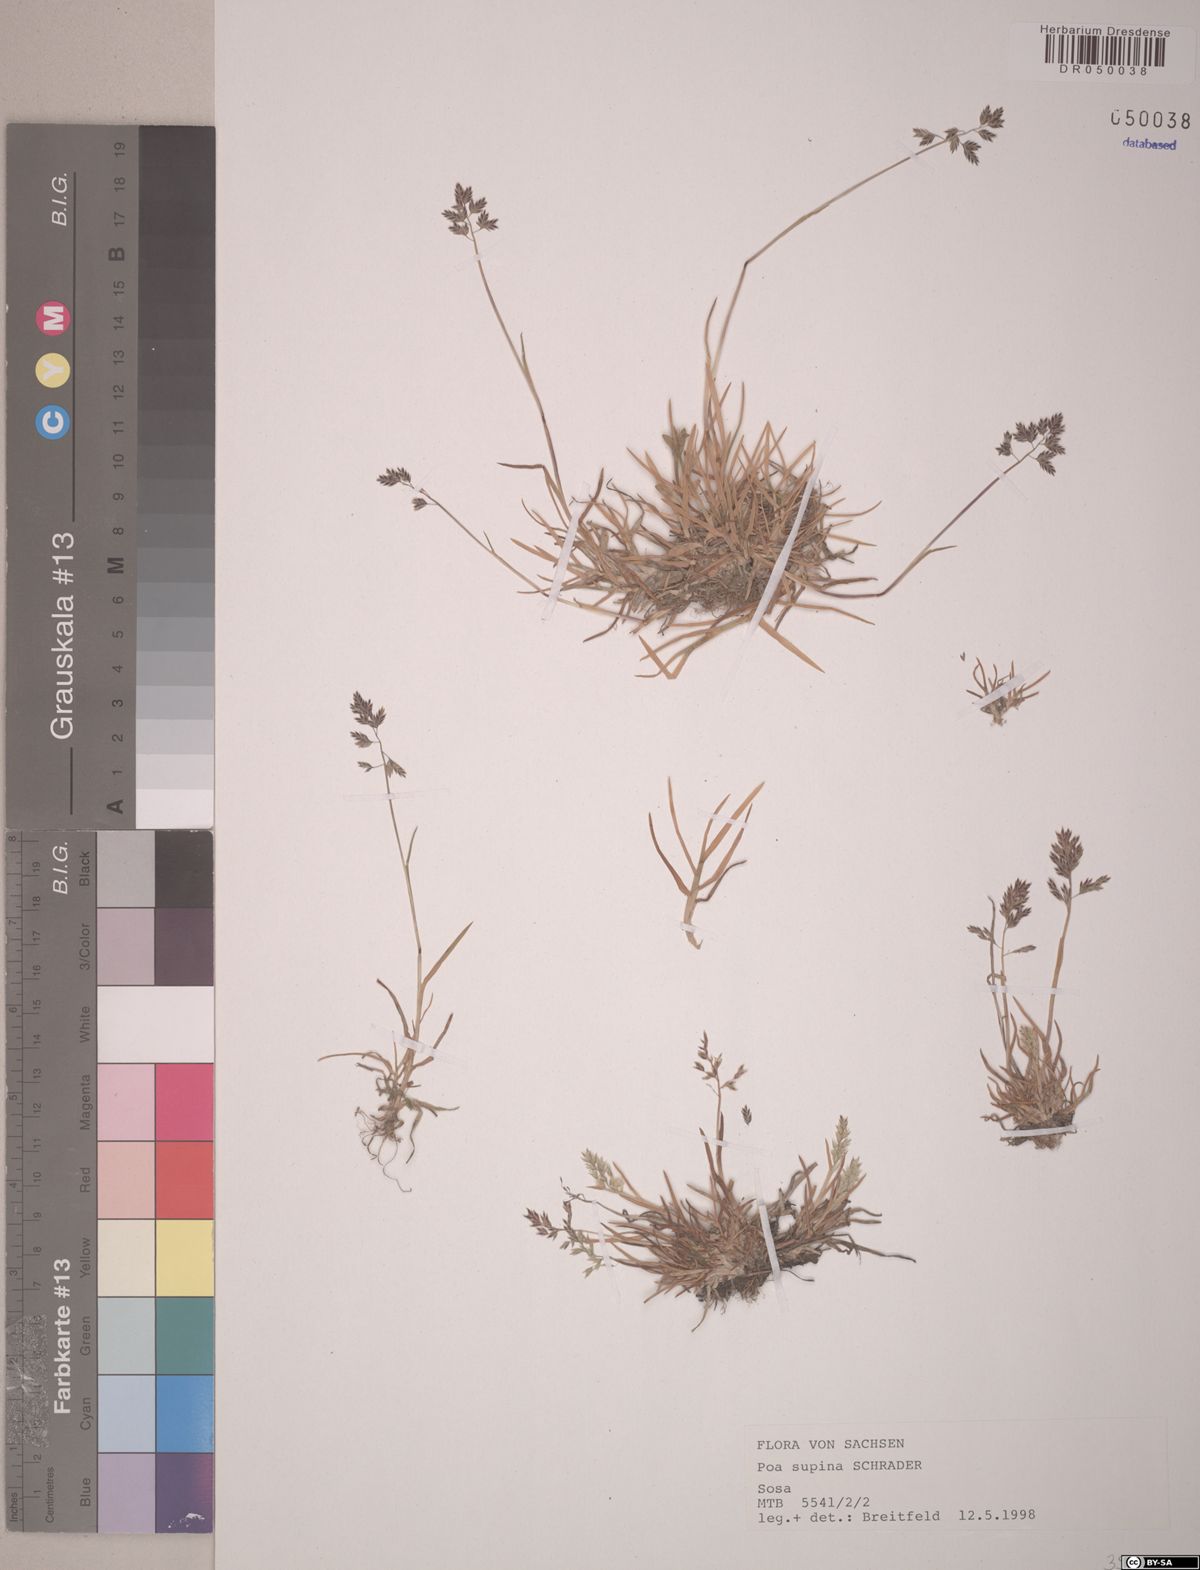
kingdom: Plantae
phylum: Tracheophyta
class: Liliopsida
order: Poales
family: Poaceae
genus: Poa
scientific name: Poa supina
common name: Supina bluegrass
